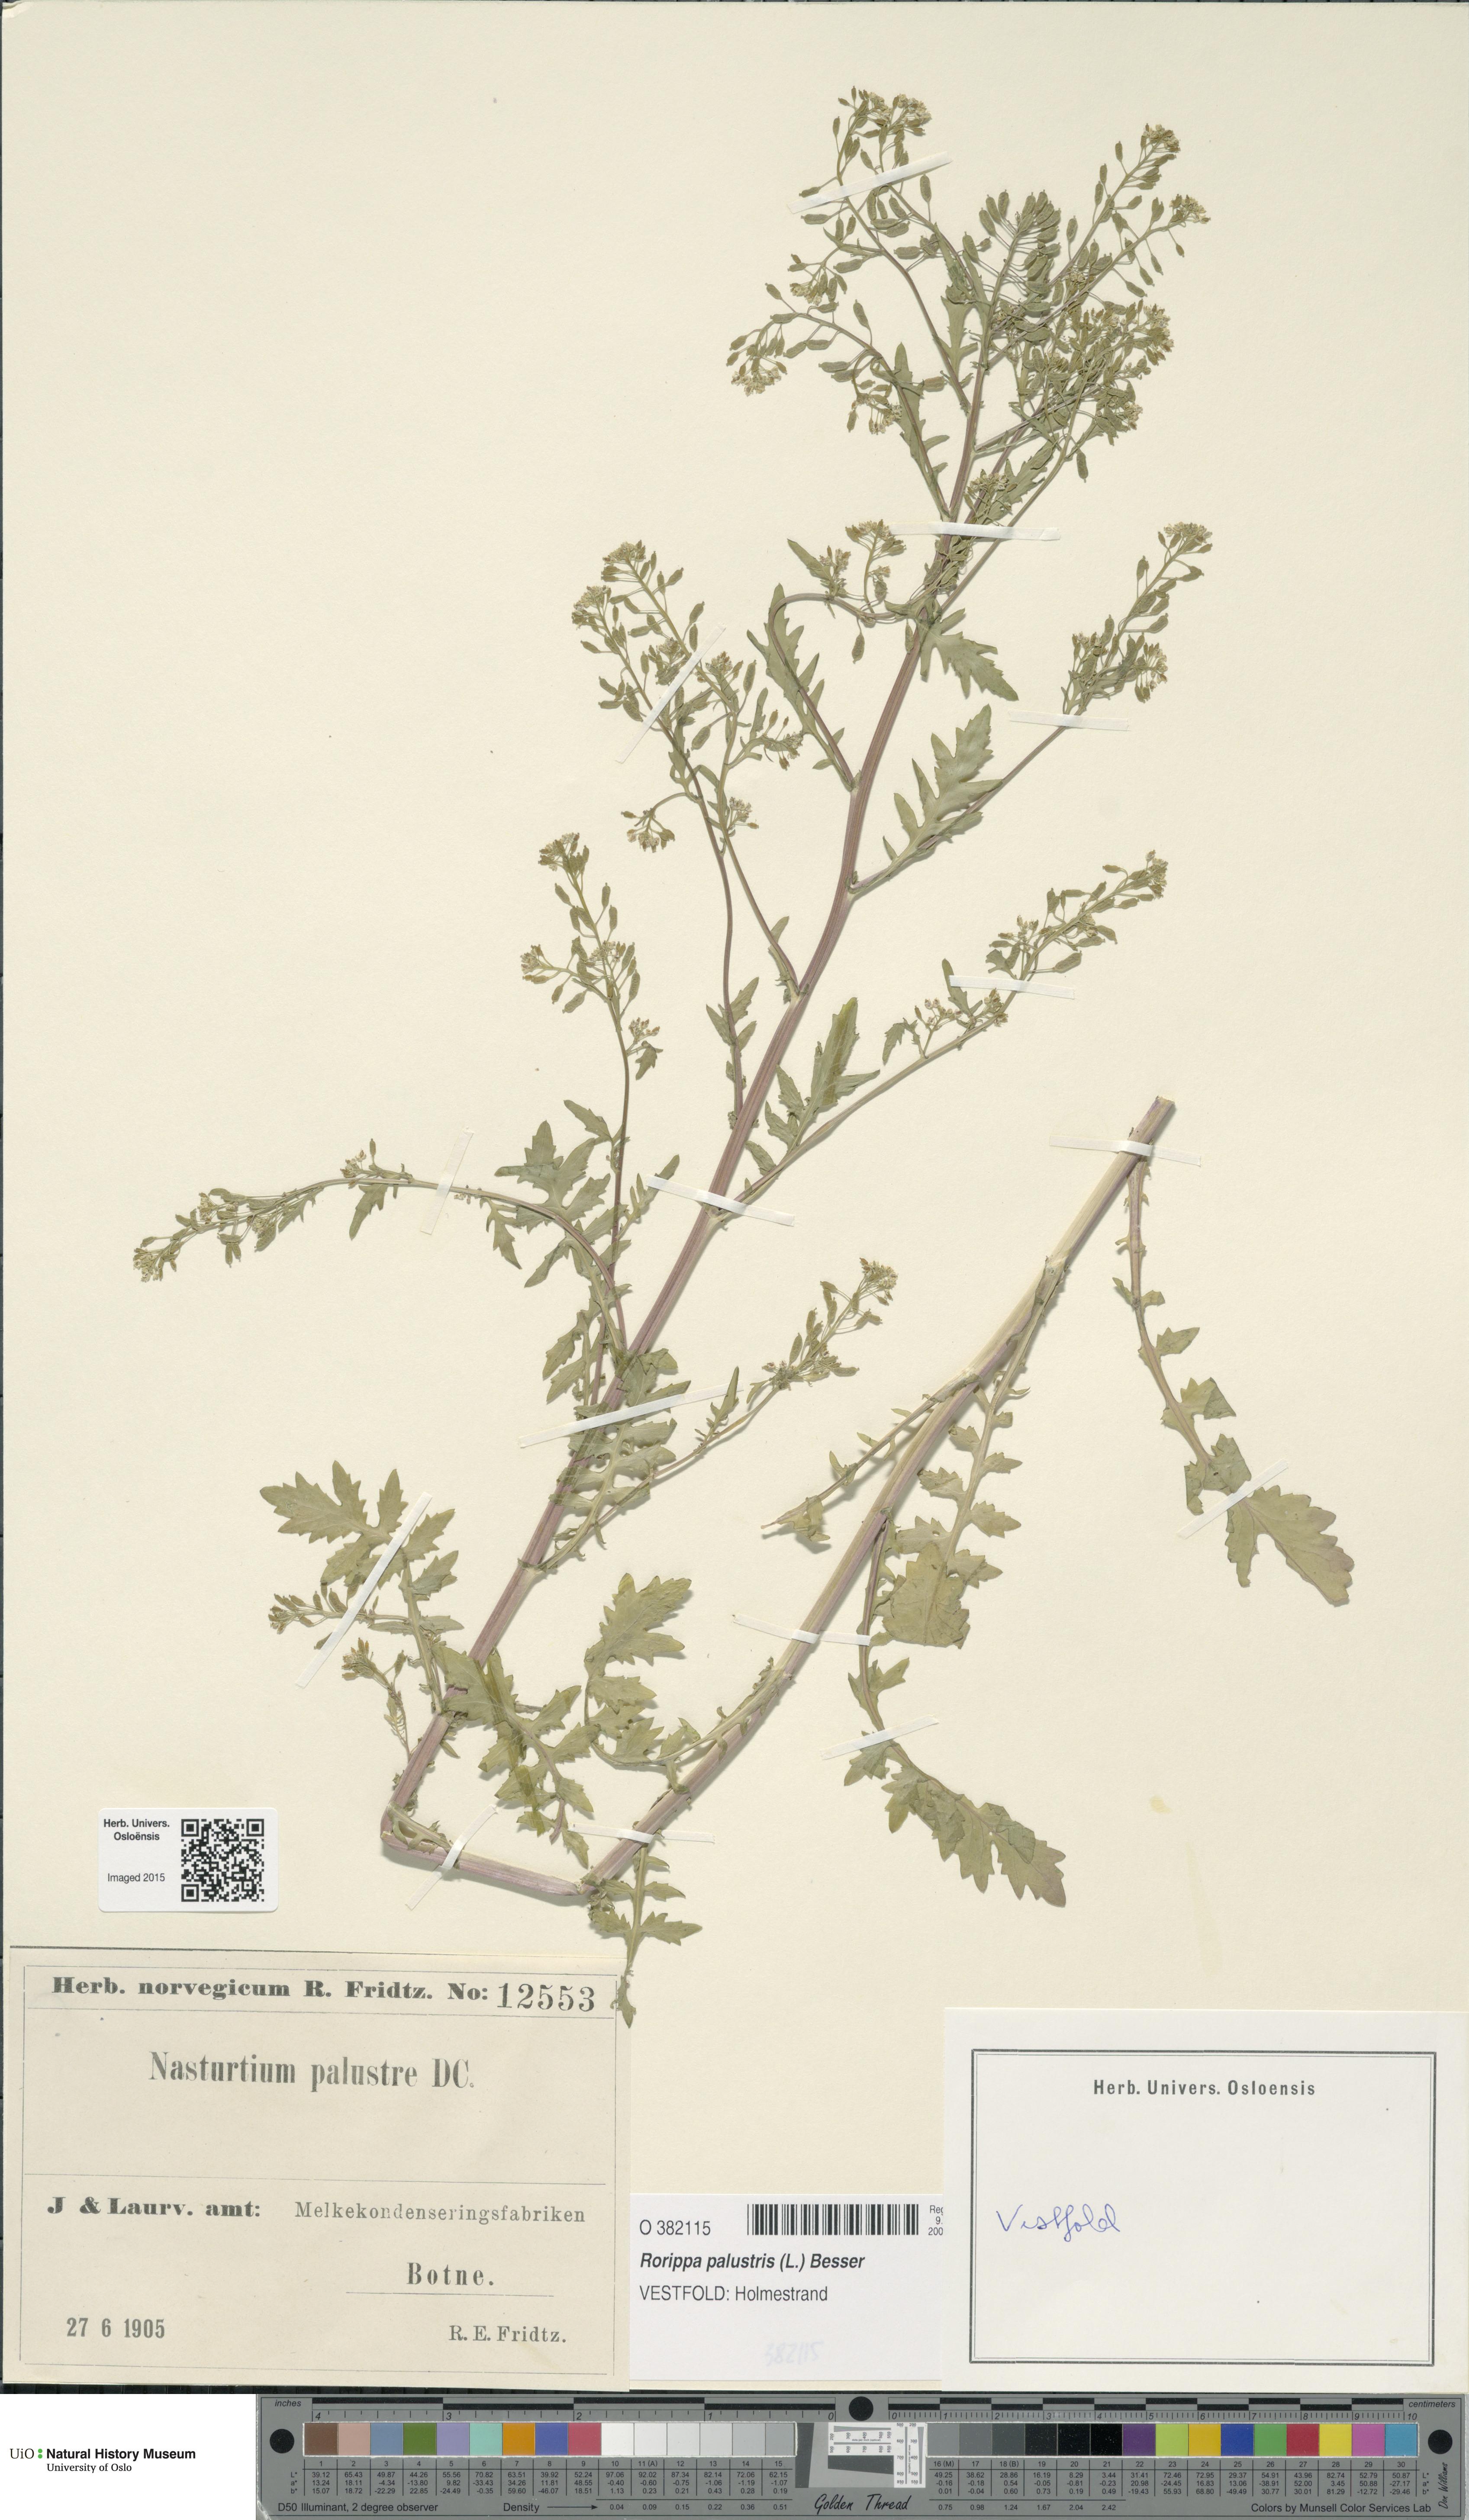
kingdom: Plantae
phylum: Tracheophyta
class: Magnoliopsida
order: Brassicales
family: Brassicaceae
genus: Rorippa
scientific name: Rorippa palustris
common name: Marsh yellow-cress
